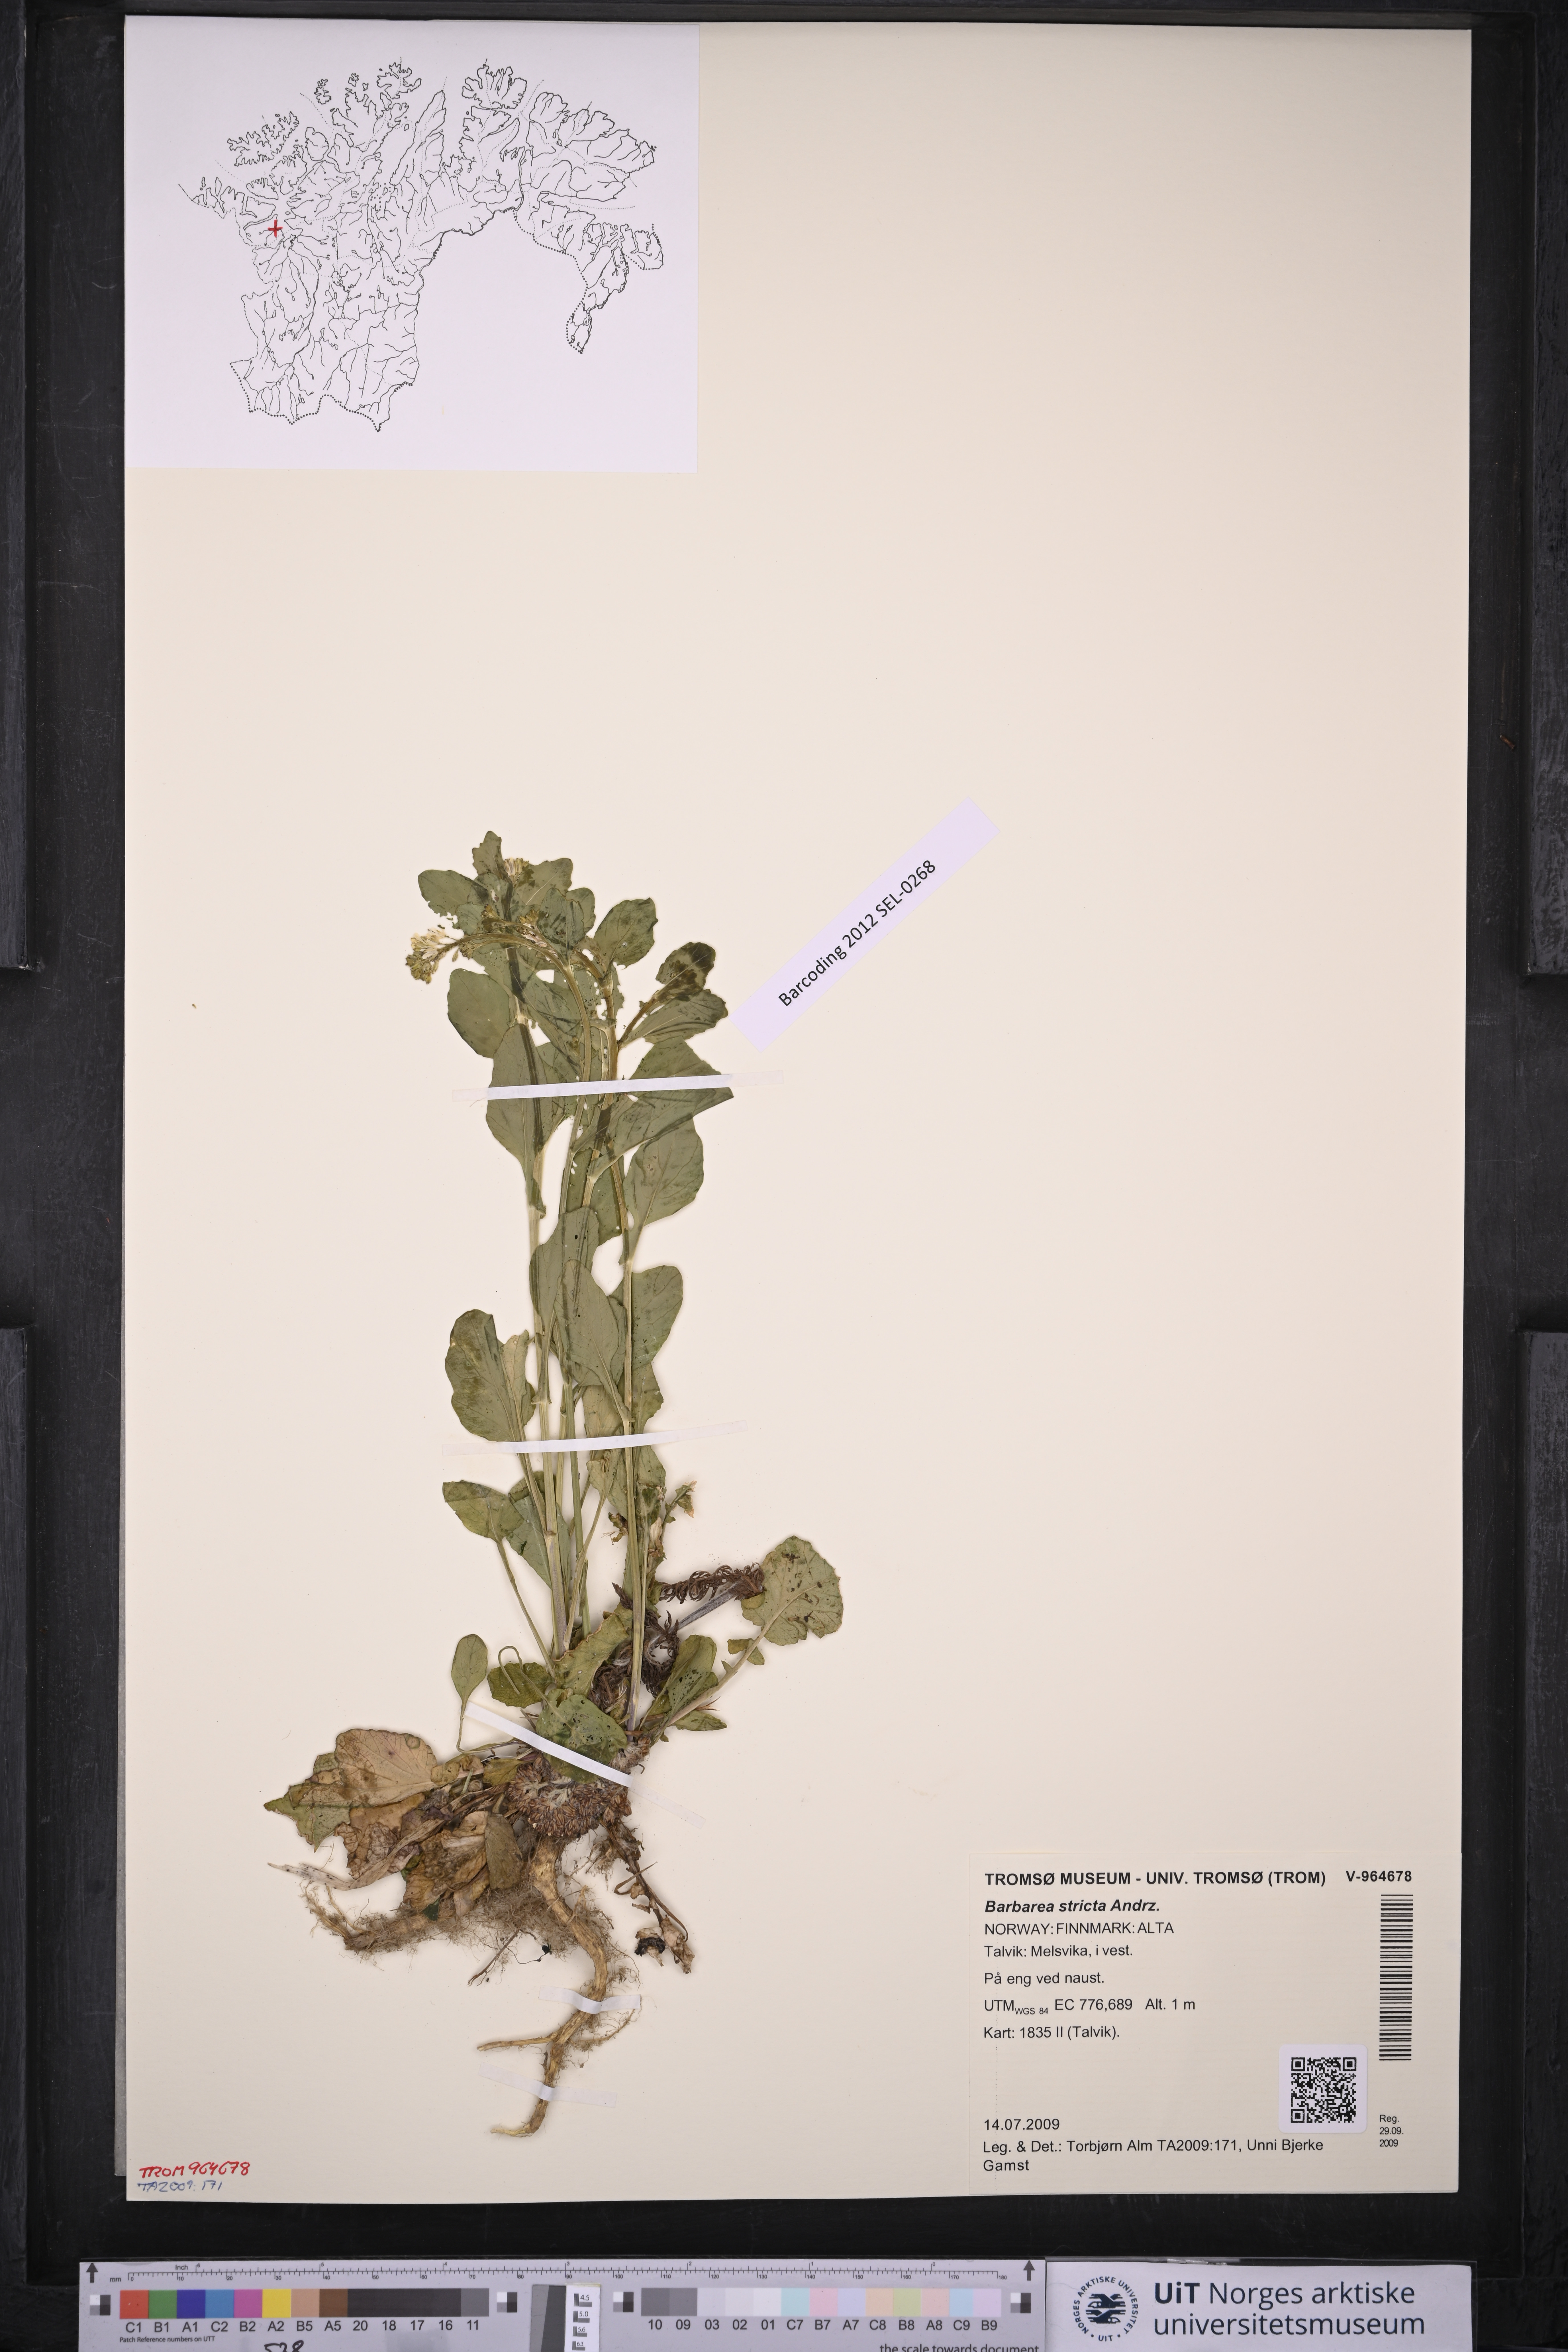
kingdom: Plantae
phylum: Tracheophyta
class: Magnoliopsida
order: Brassicales
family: Brassicaceae
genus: Barbarea
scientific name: Barbarea stricta
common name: Small-flowered winter-cress
